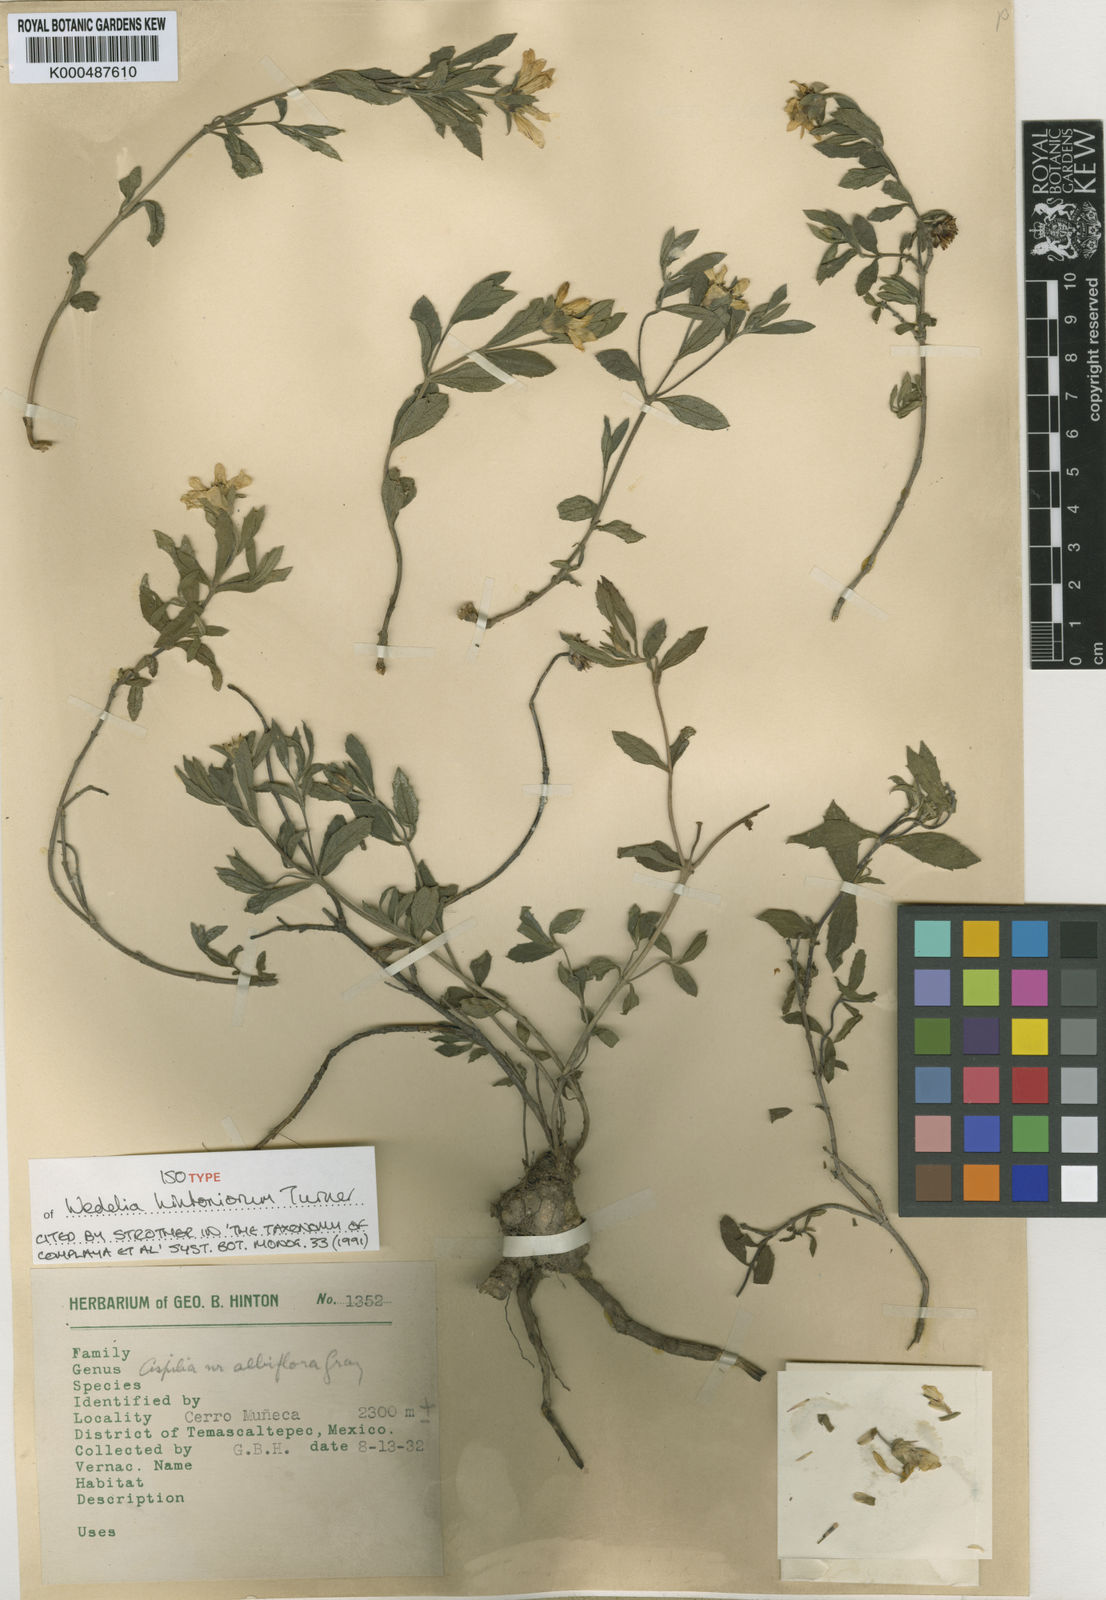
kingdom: Plantae
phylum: Tracheophyta
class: Magnoliopsida
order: Asterales
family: Asteraceae
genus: Wedelia
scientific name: Wedelia hintoniorum
